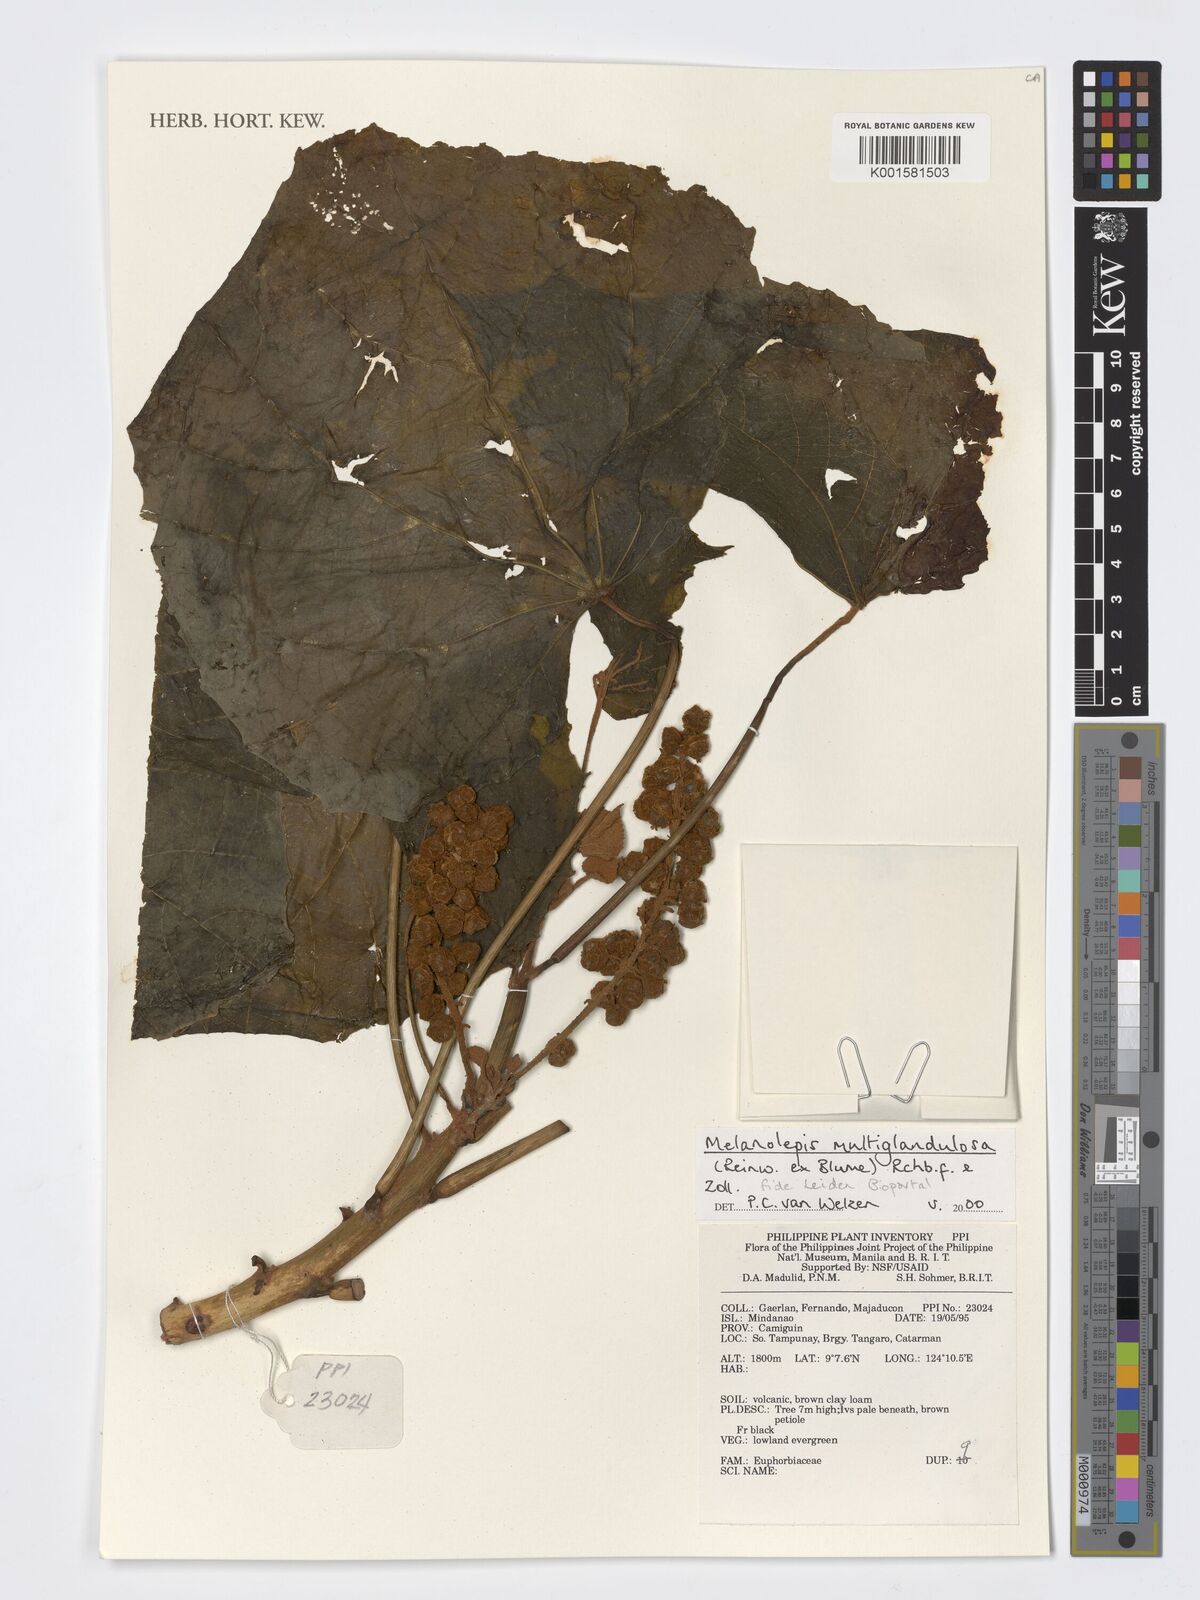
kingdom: Plantae
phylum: Tracheophyta
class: Magnoliopsida
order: Malpighiales
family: Euphorbiaceae
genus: Melanolepis
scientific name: Melanolepis multiglandulosa
